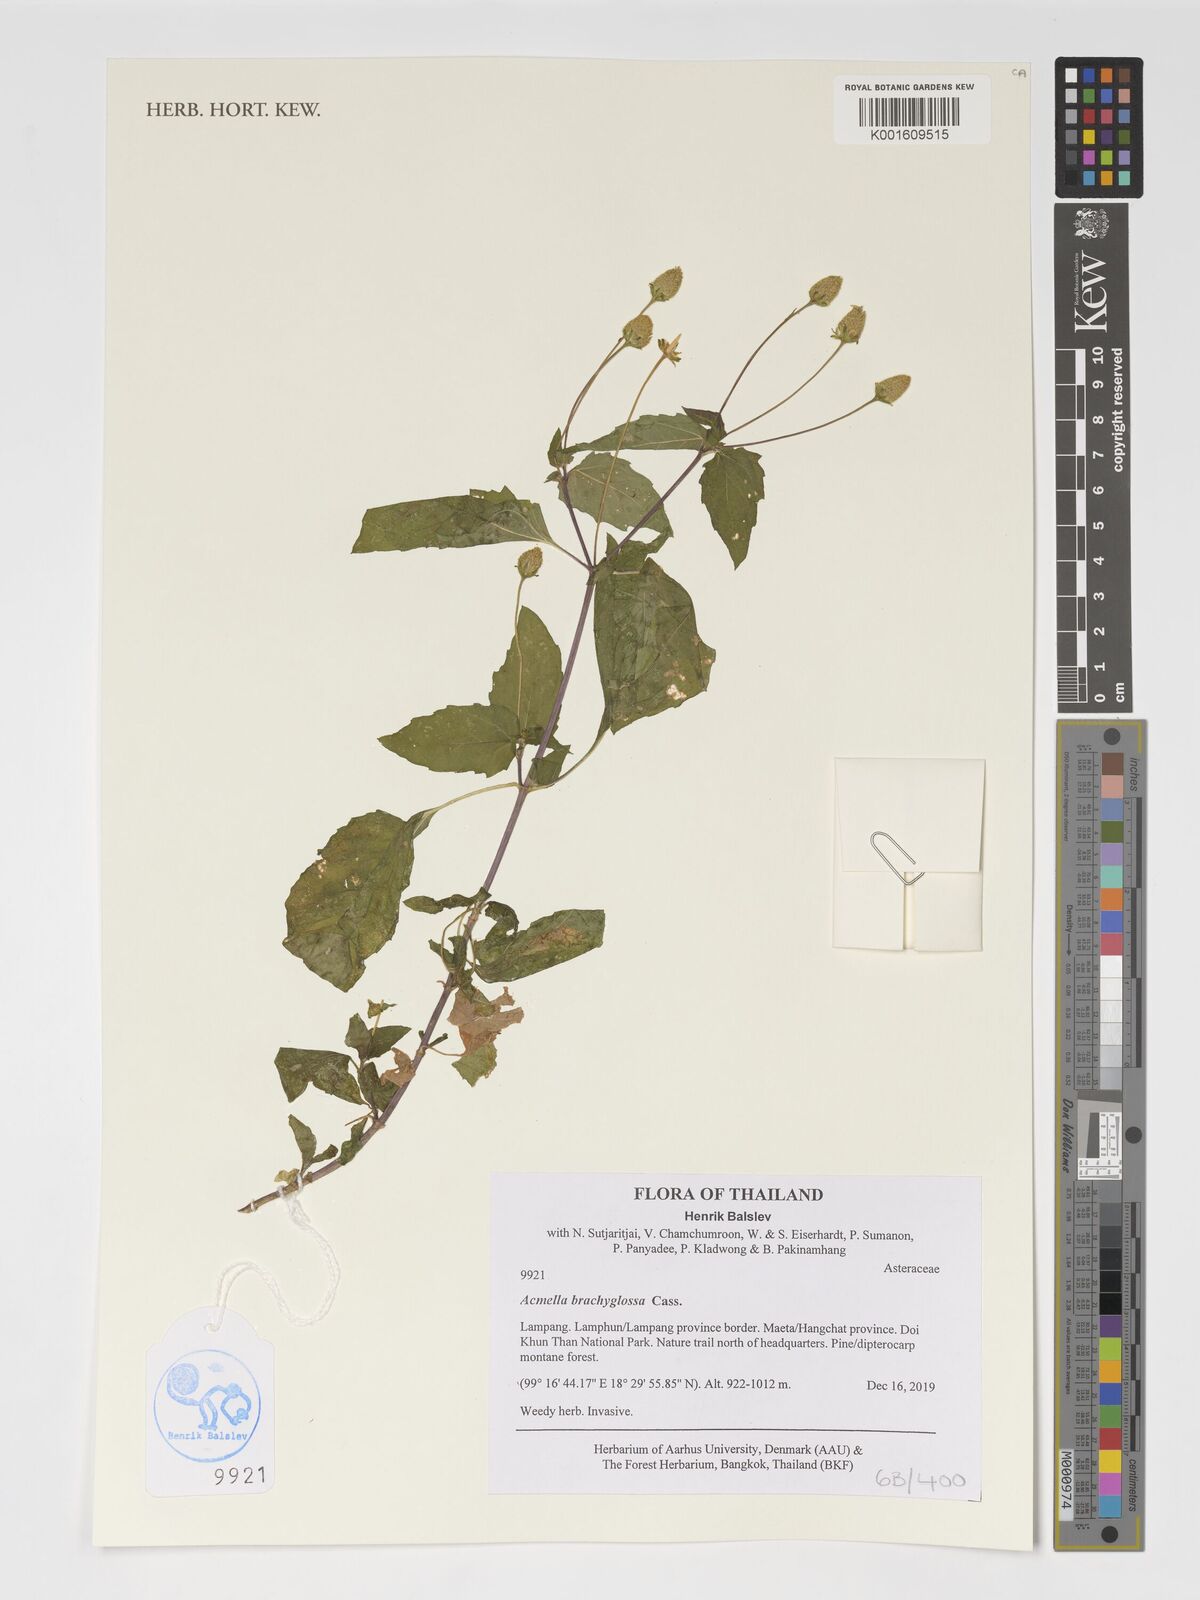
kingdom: Plantae
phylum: Tracheophyta
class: Magnoliopsida
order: Asterales
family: Asteraceae
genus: Acmella
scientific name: Acmella brachyglossa
